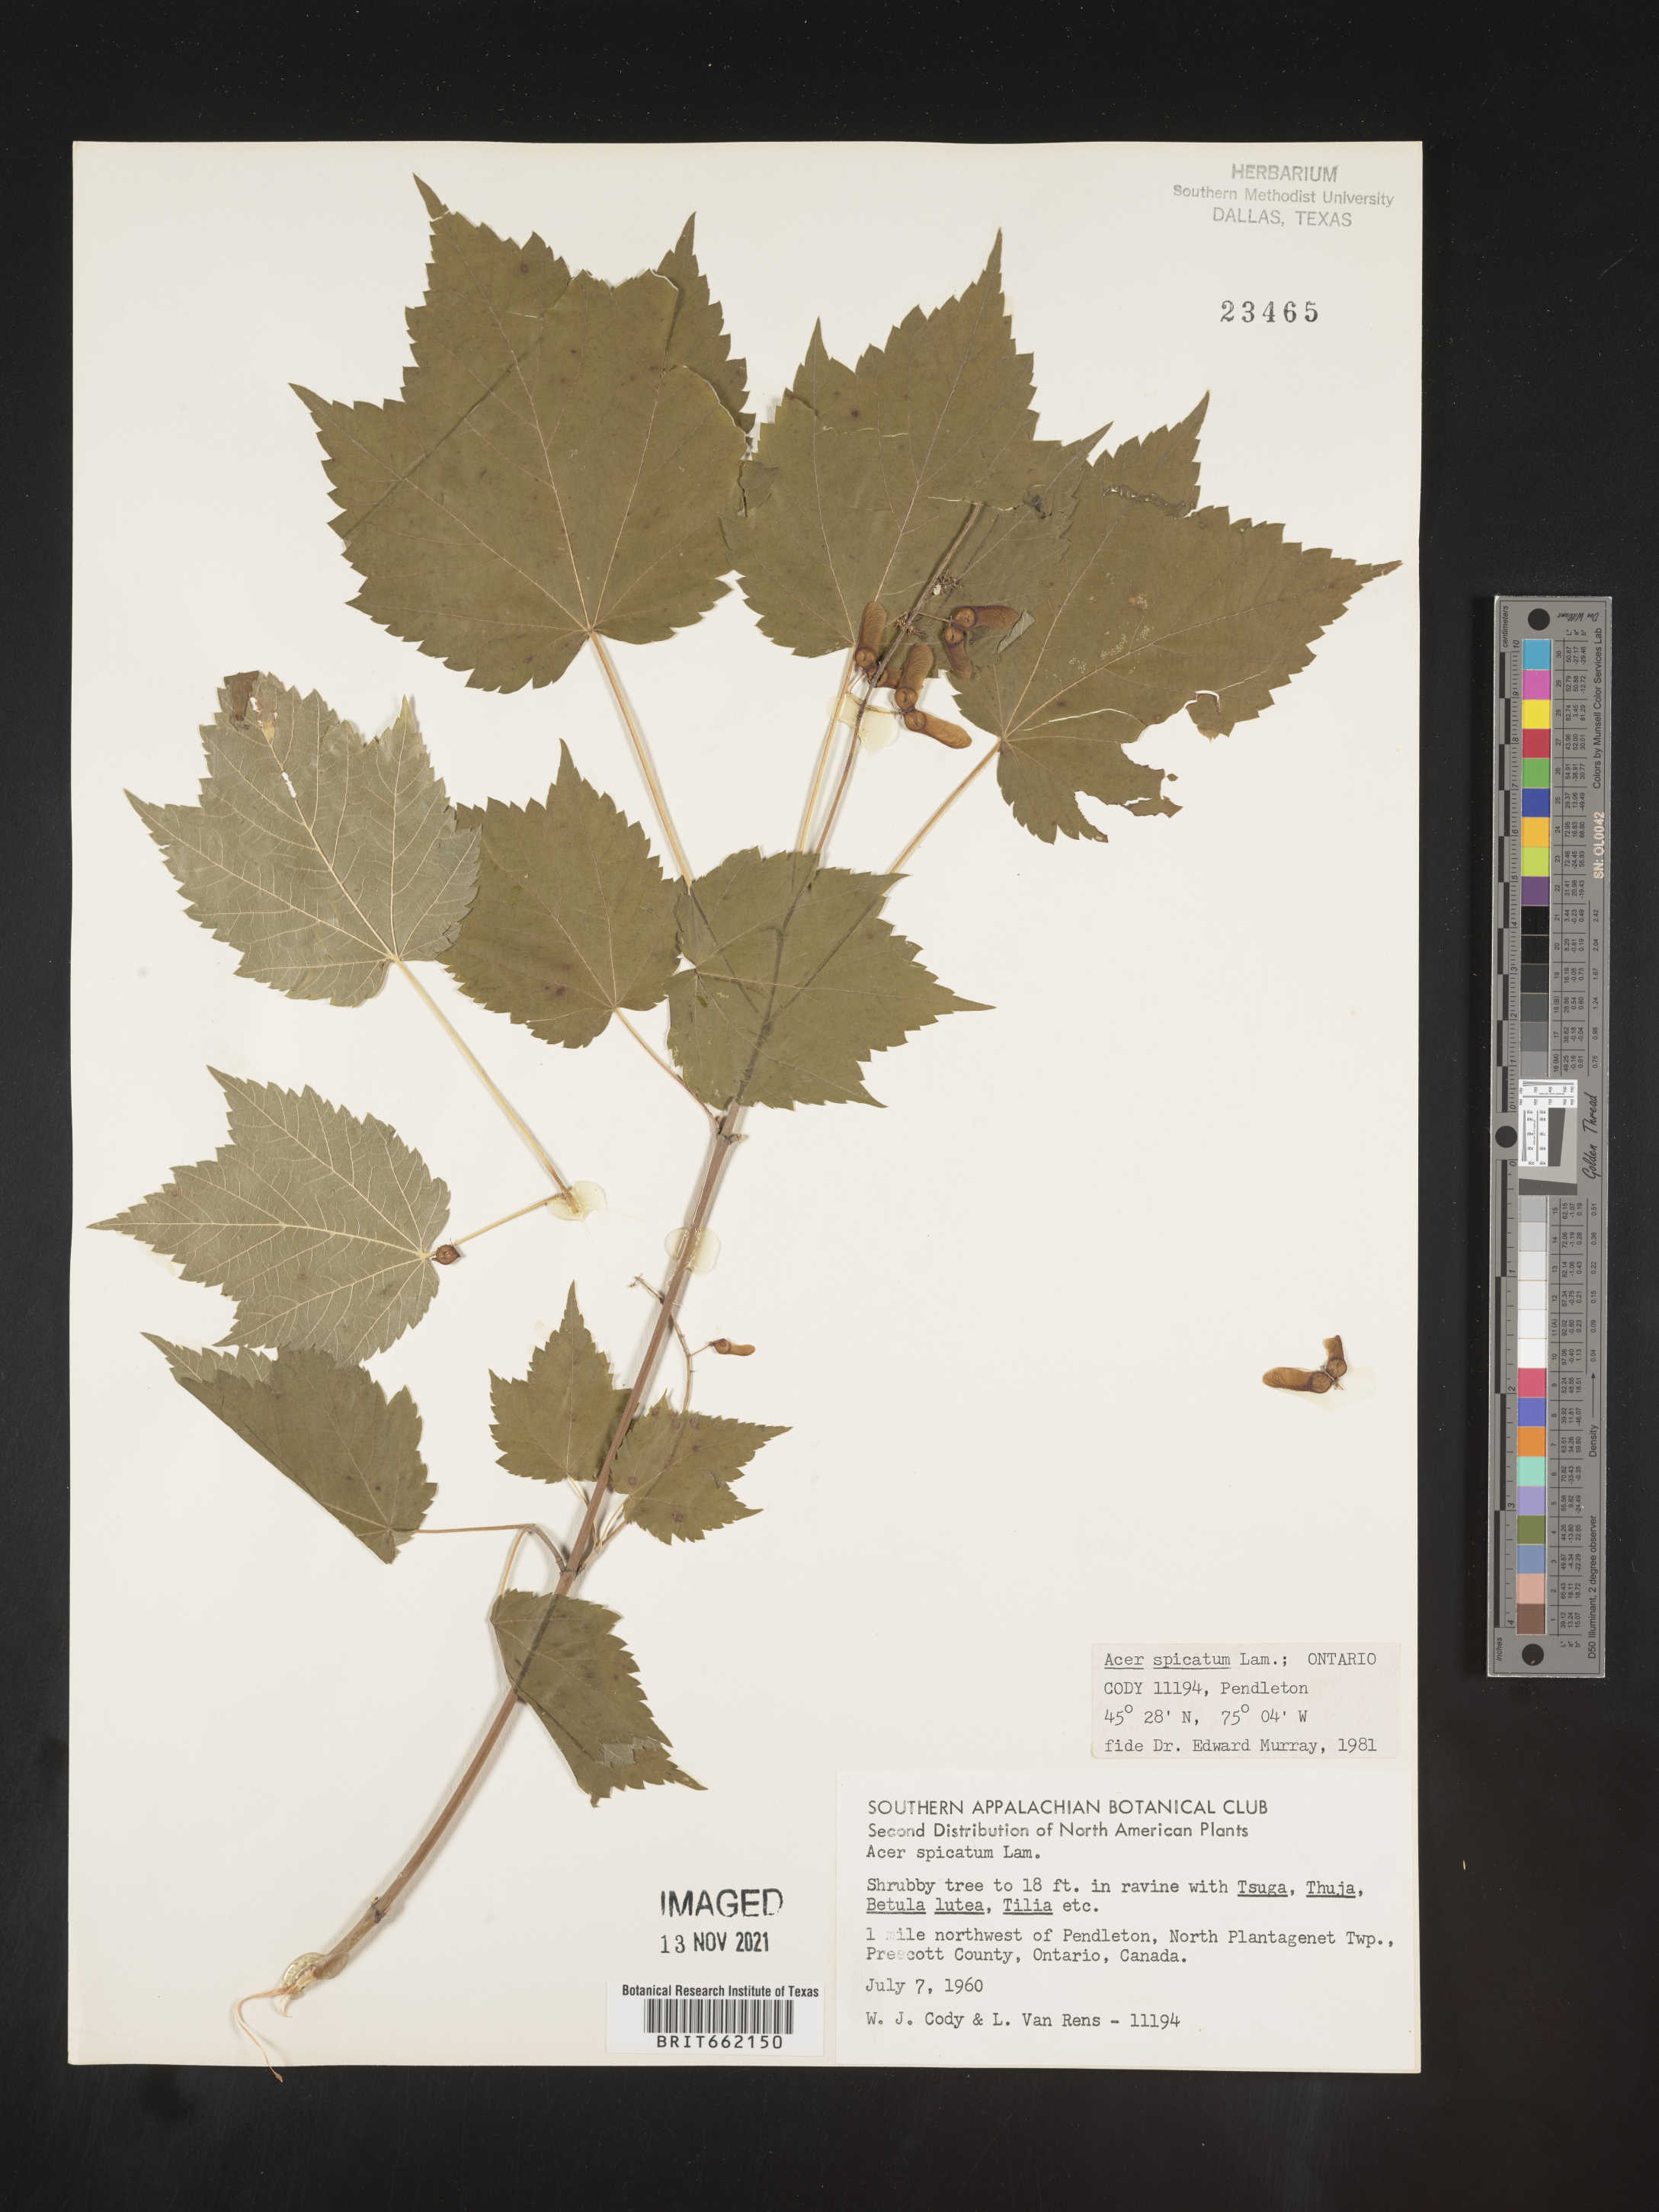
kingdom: Plantae
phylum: Tracheophyta
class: Magnoliopsida
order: Sapindales
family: Sapindaceae
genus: Acer
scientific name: Acer spicatum
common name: Mountain maple
